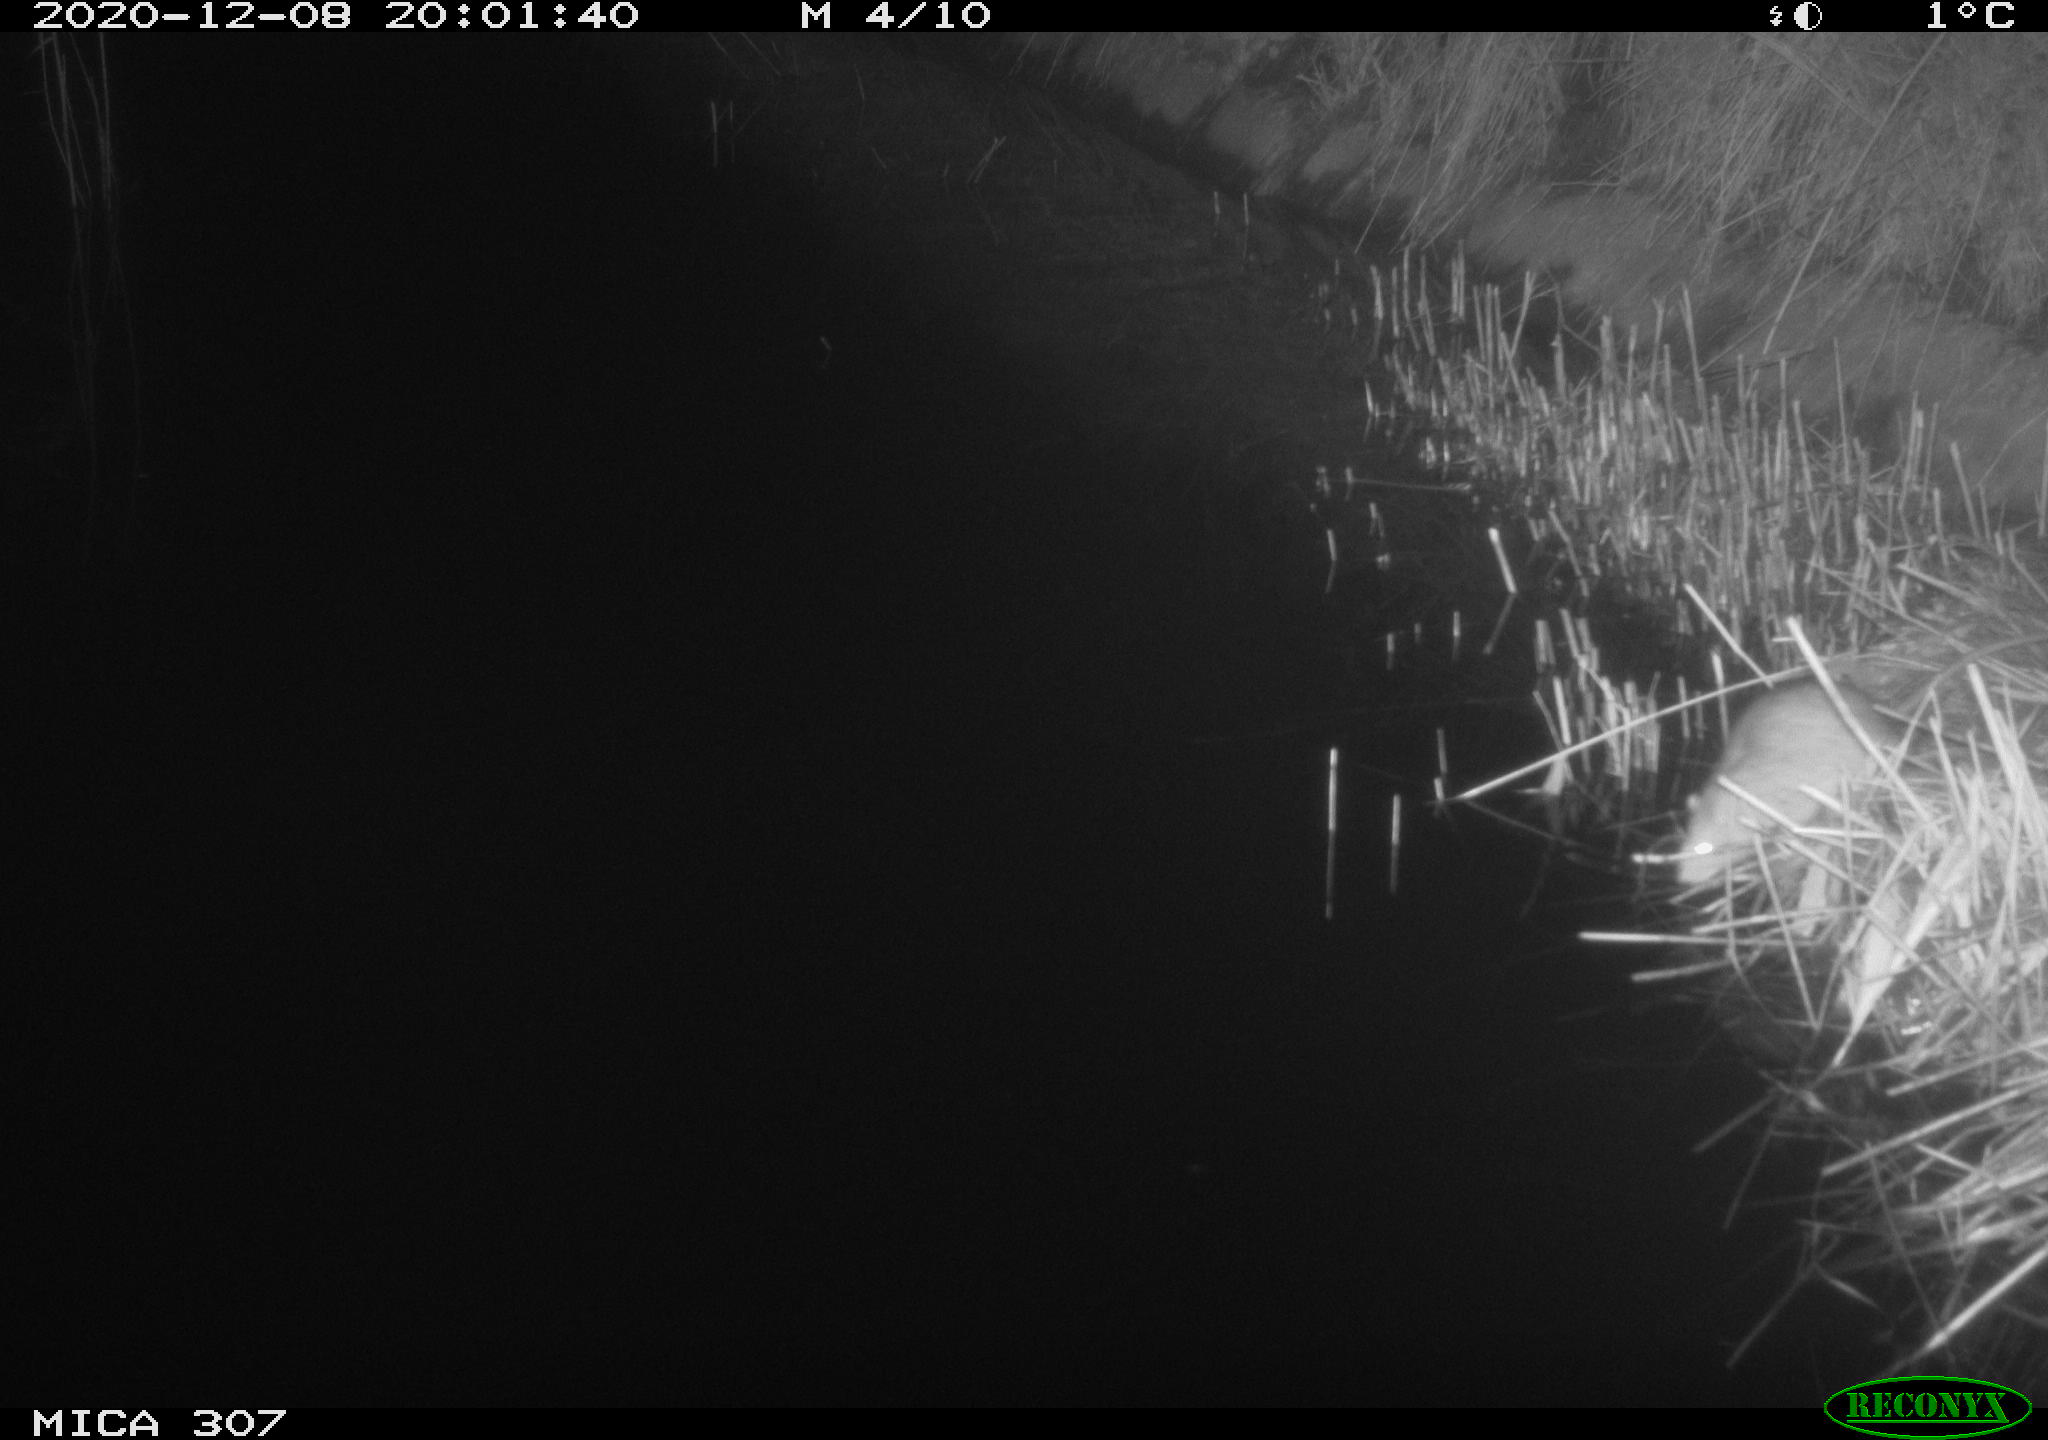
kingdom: Animalia
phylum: Chordata
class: Mammalia
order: Rodentia
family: Muridae
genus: Rattus
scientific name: Rattus norvegicus
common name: Brown rat
